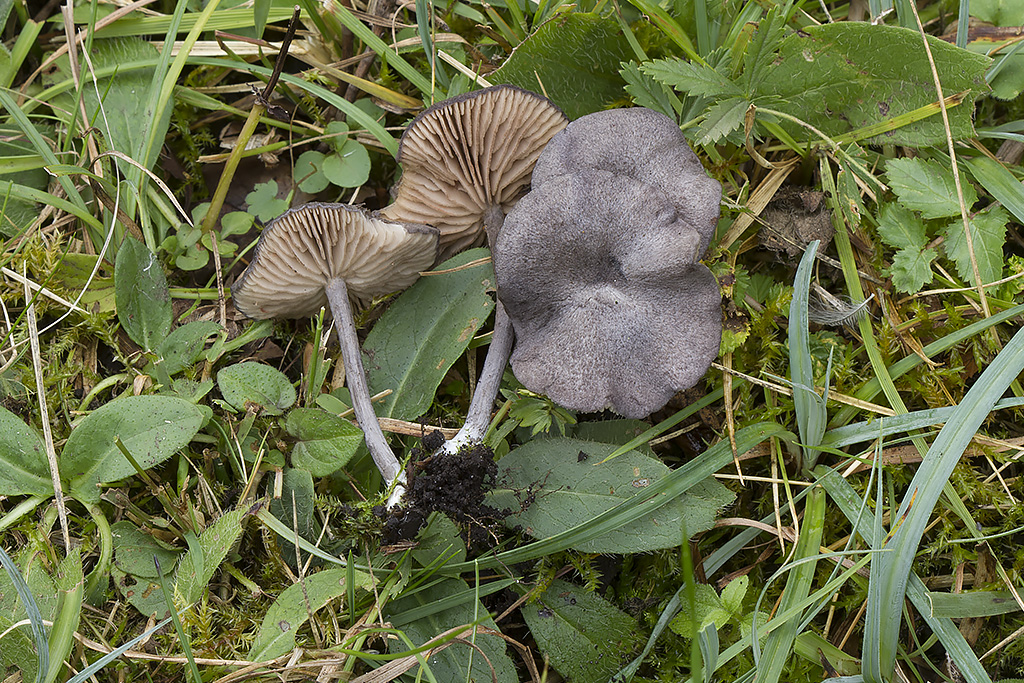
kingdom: Fungi
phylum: Basidiomycota
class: Agaricomycetes
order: Agaricales
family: Entolomataceae
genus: Entoloma
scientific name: Entoloma mougeotii
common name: violetgrå rødblad
